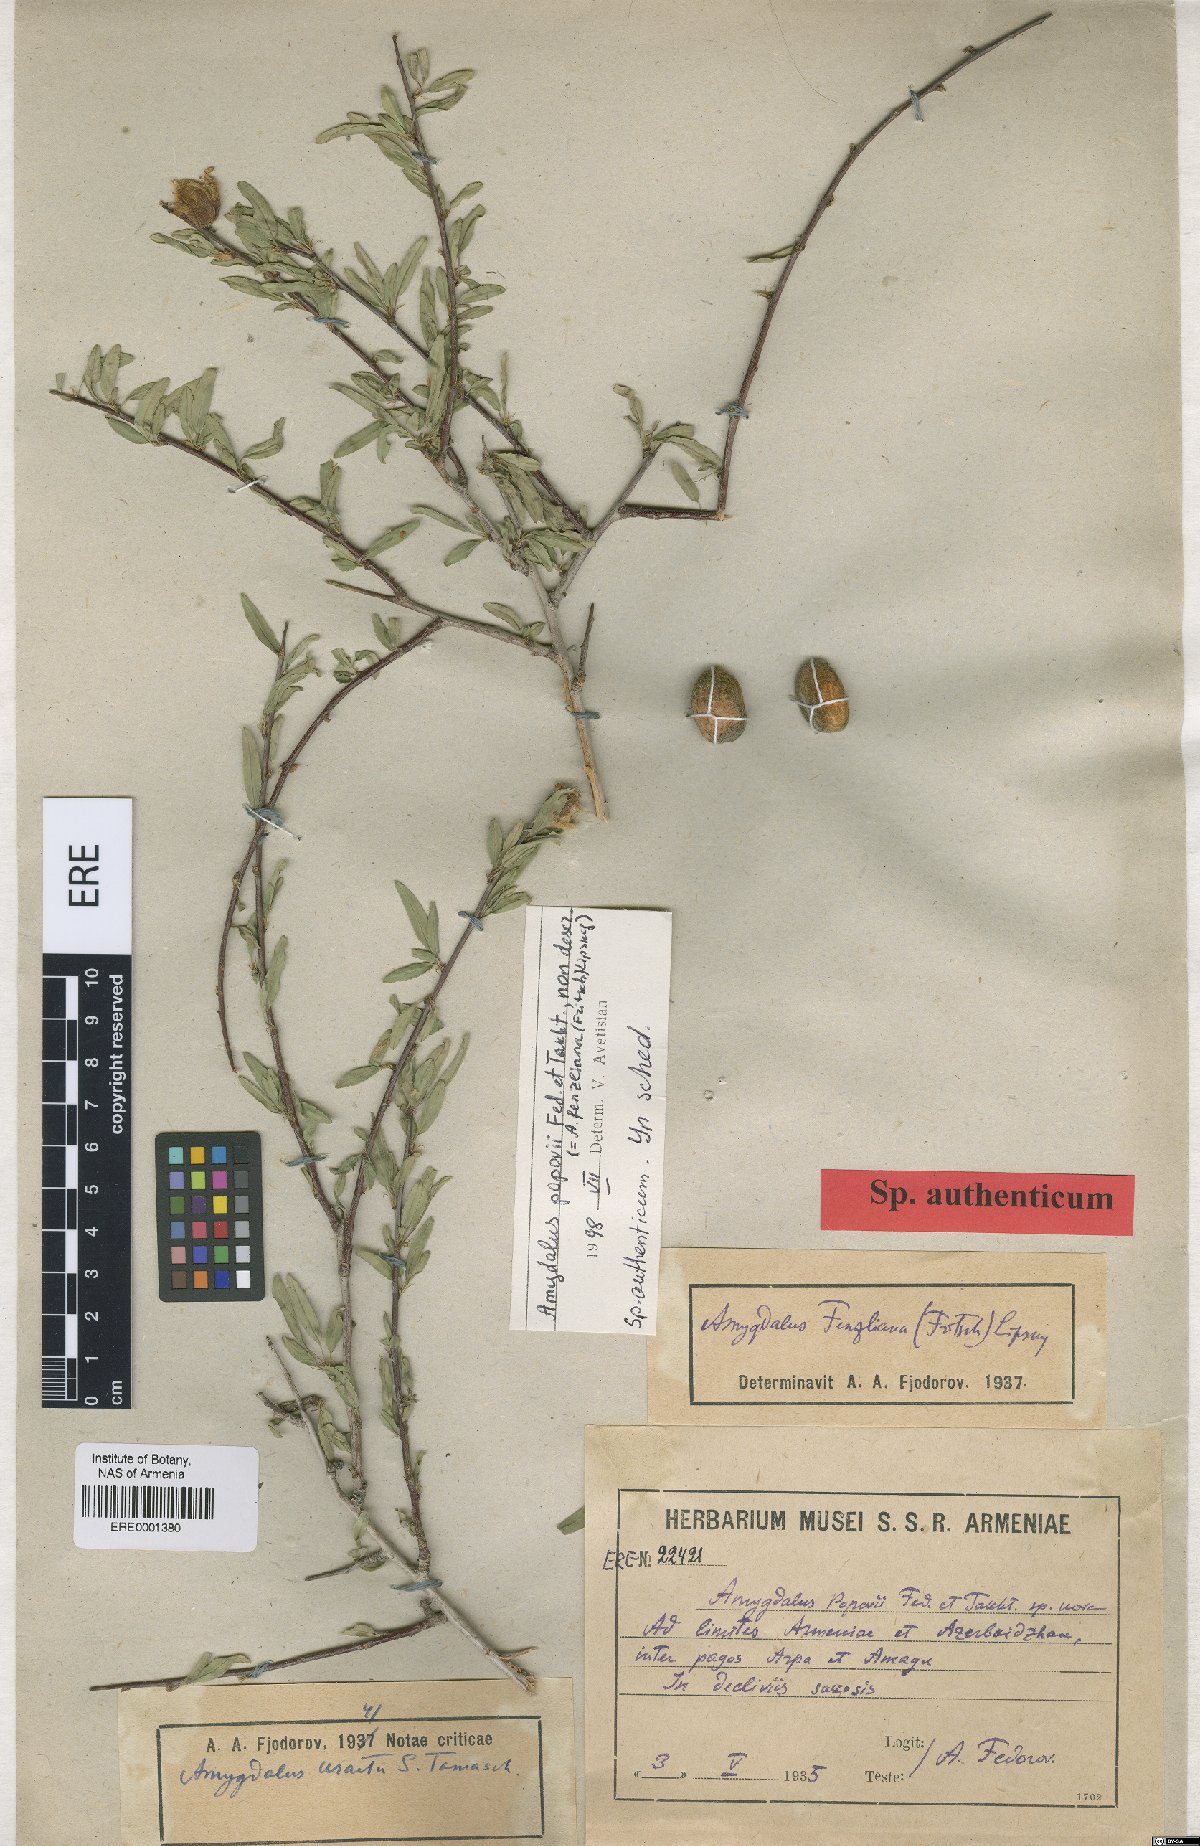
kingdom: Plantae
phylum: Tracheophyta
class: Magnoliopsida
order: Rosales
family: Rosaceae
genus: Prunus
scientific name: Prunus
